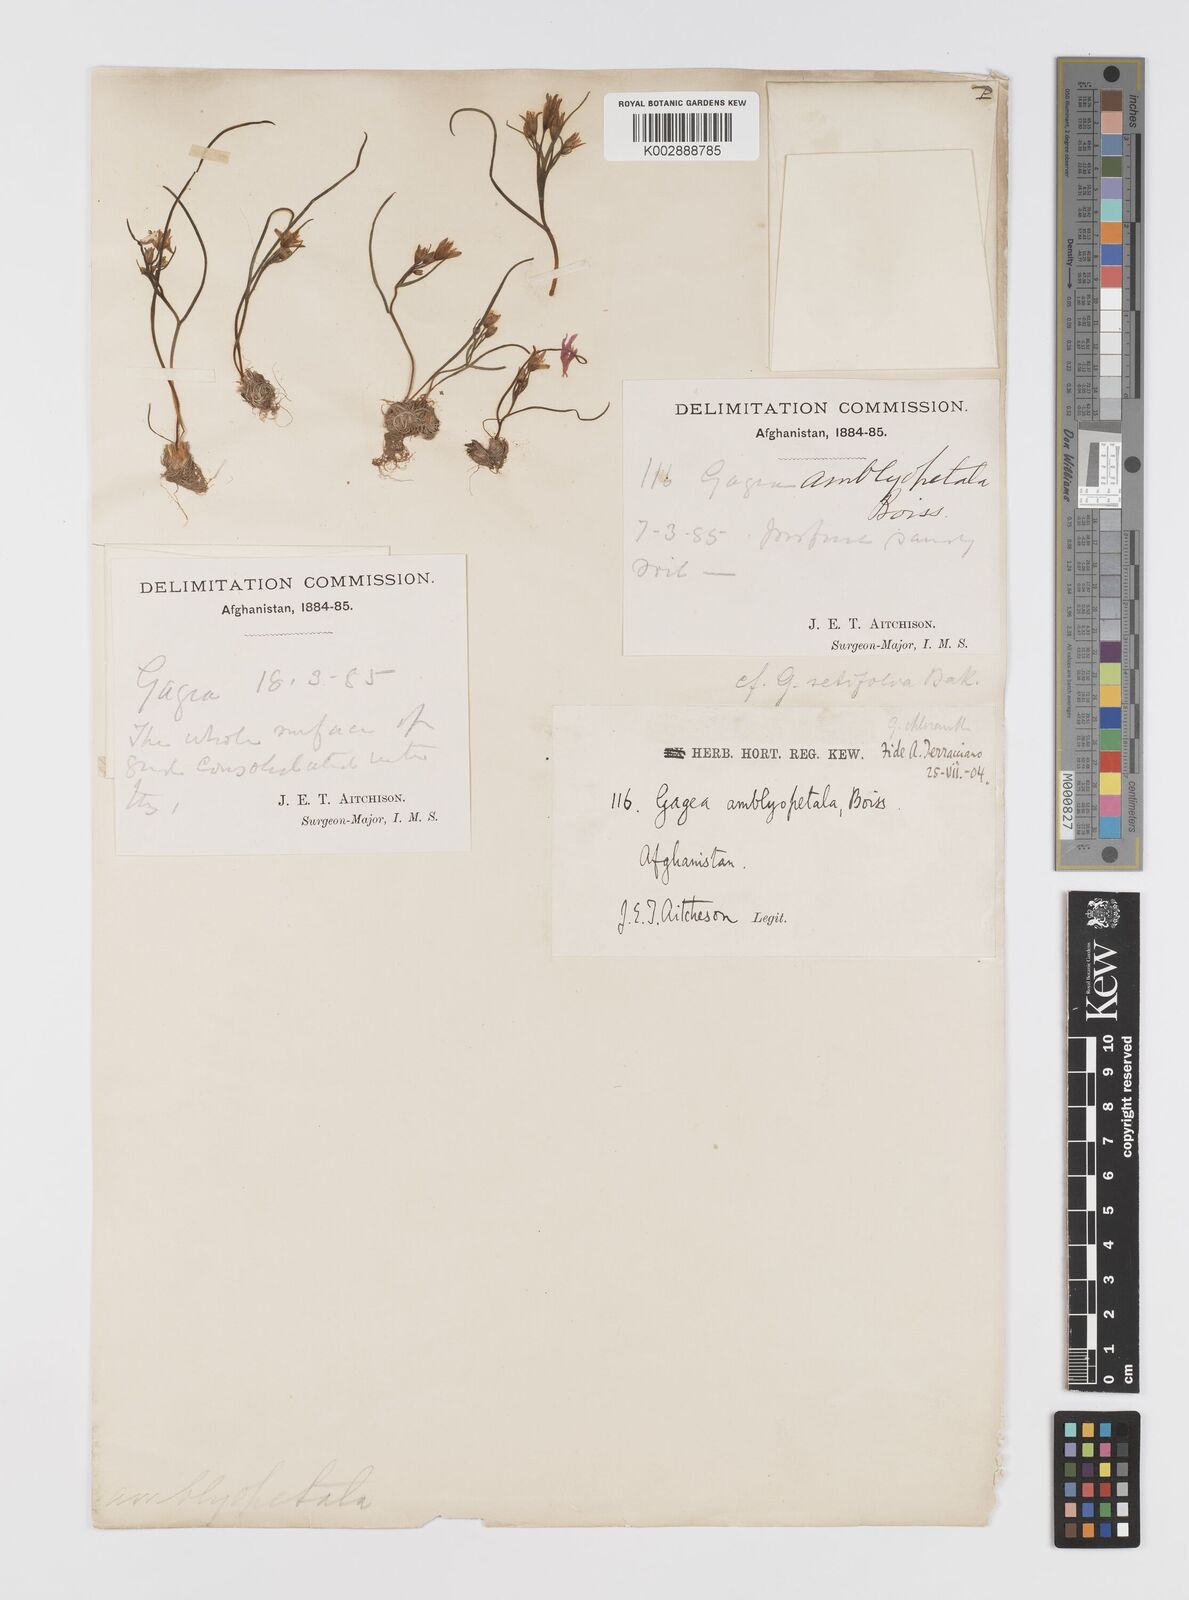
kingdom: Plantae
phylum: Tracheophyta
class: Liliopsida
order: Liliales
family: Liliaceae
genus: Gagea
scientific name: Gagea longifolia
